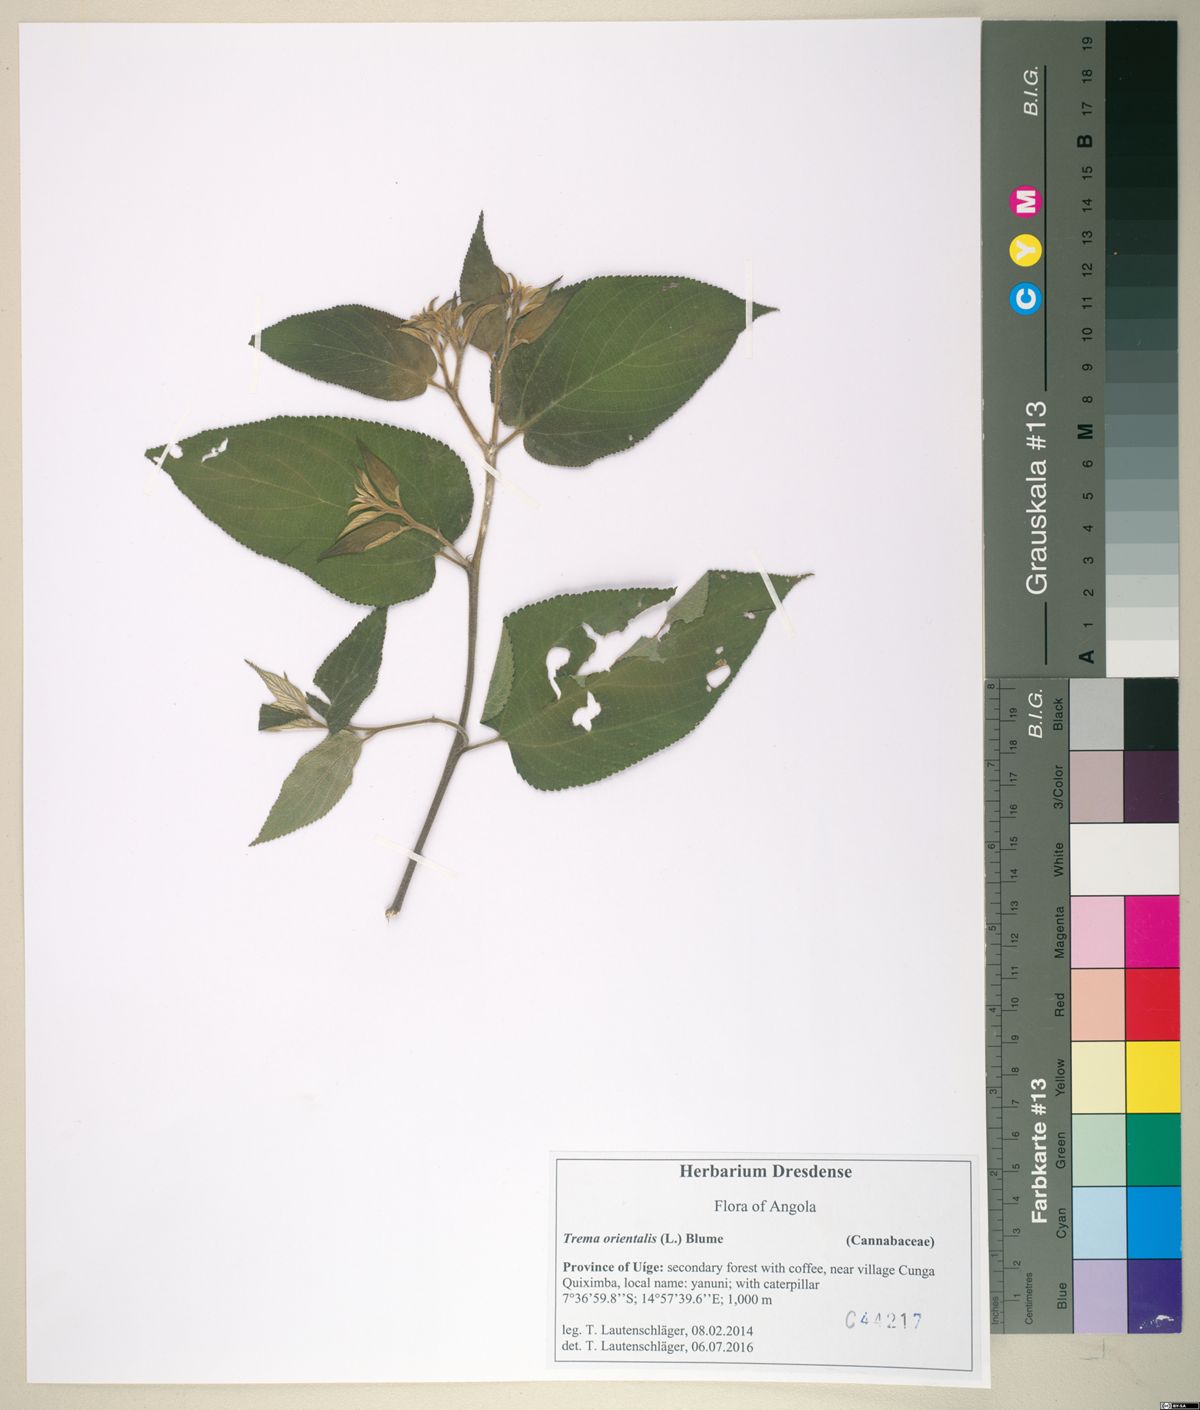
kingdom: Plantae
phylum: Tracheophyta
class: Magnoliopsida
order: Rosales
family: Cannabaceae
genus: Trema
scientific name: Trema orientale
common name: Indian charcoal tree
